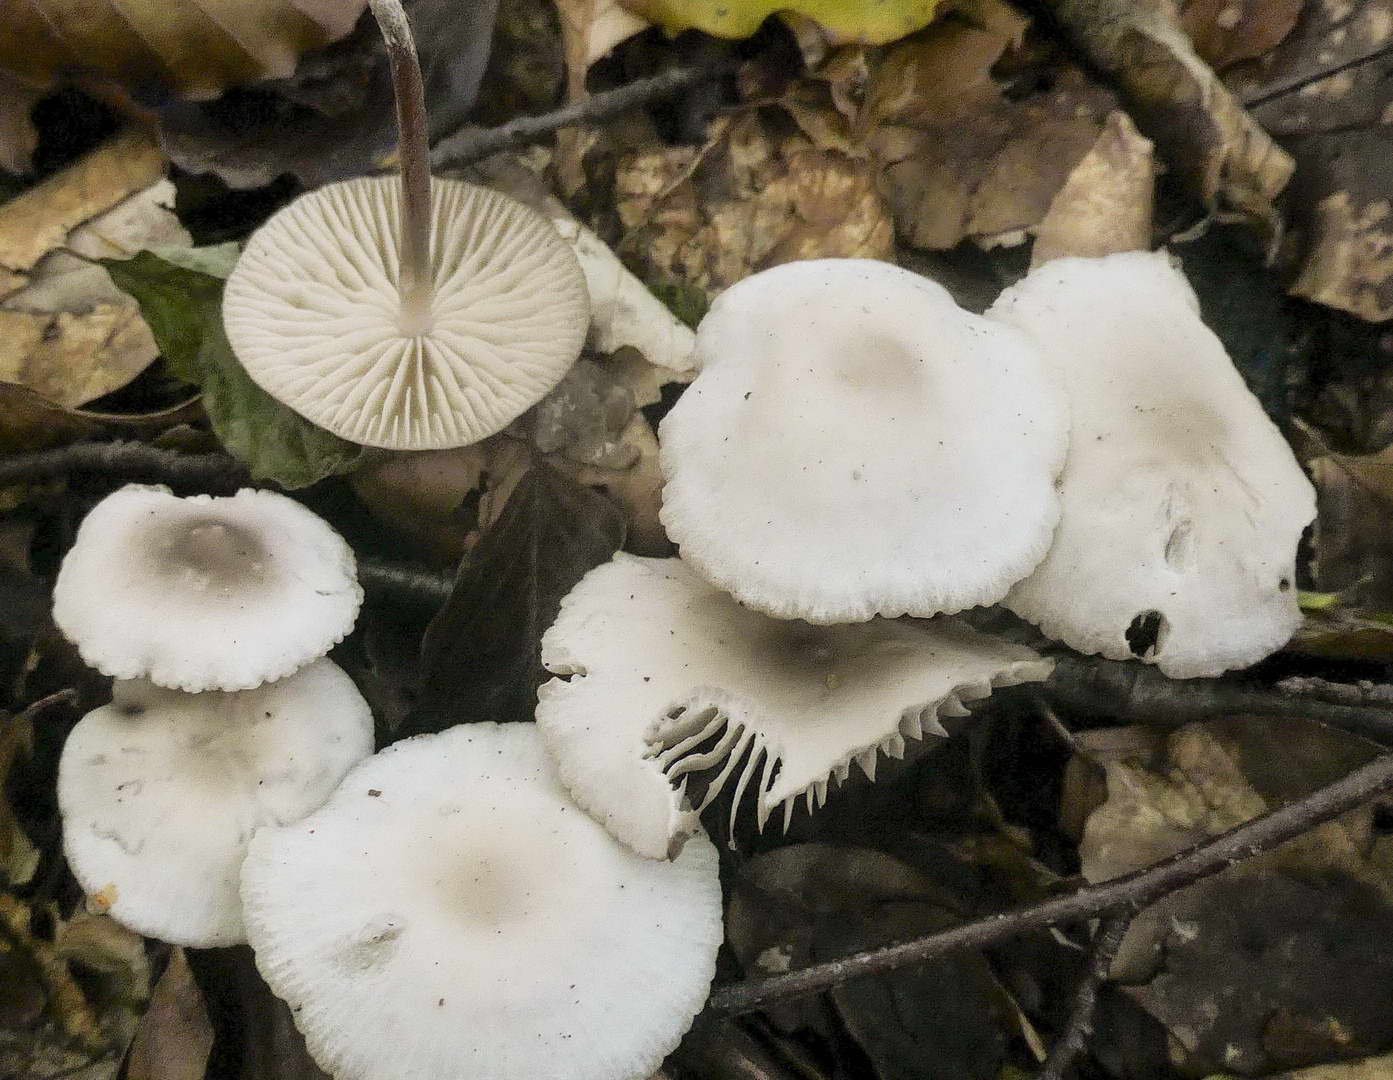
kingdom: Fungi
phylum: Basidiomycota
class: Agaricomycetes
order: Agaricales
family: Marasmiaceae
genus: Marasmius
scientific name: Marasmius wynneae
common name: hvælvet bruskhat
